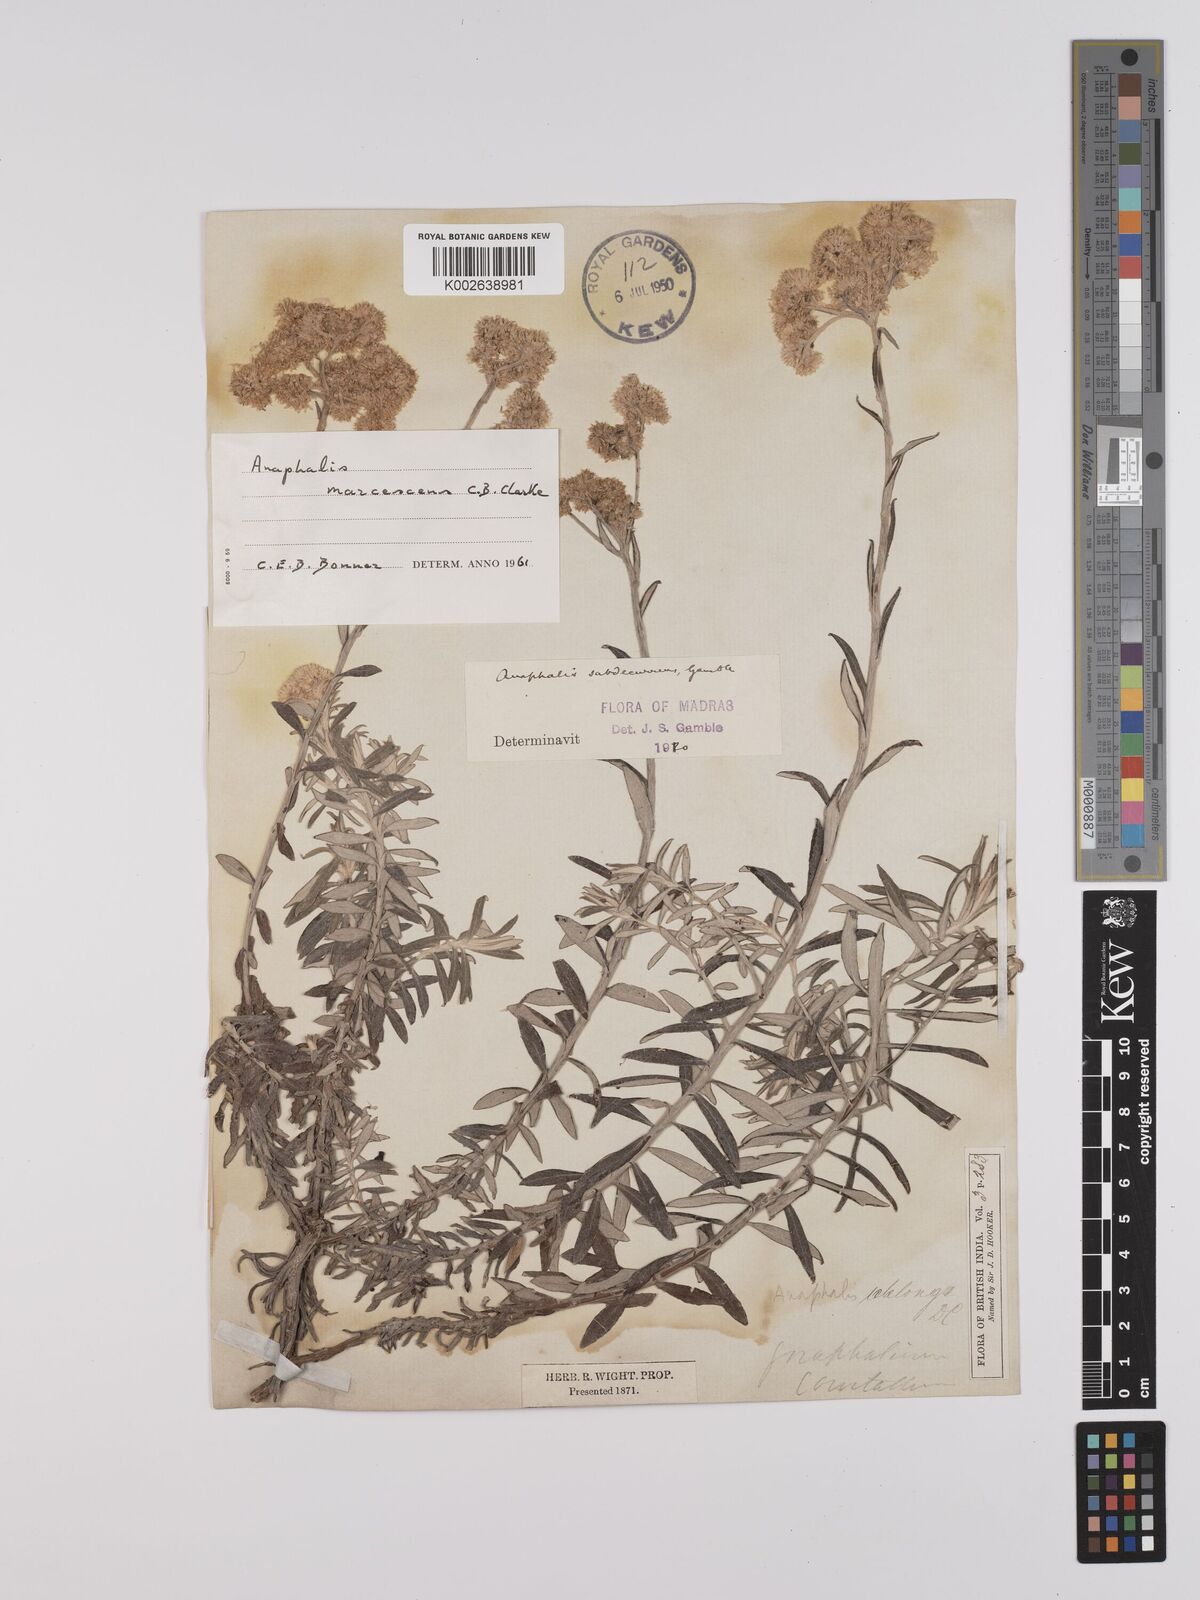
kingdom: Plantae
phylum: Tracheophyta
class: Magnoliopsida
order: Asterales
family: Asteraceae
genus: Anaphalis
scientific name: Anaphalis subdecurrens
